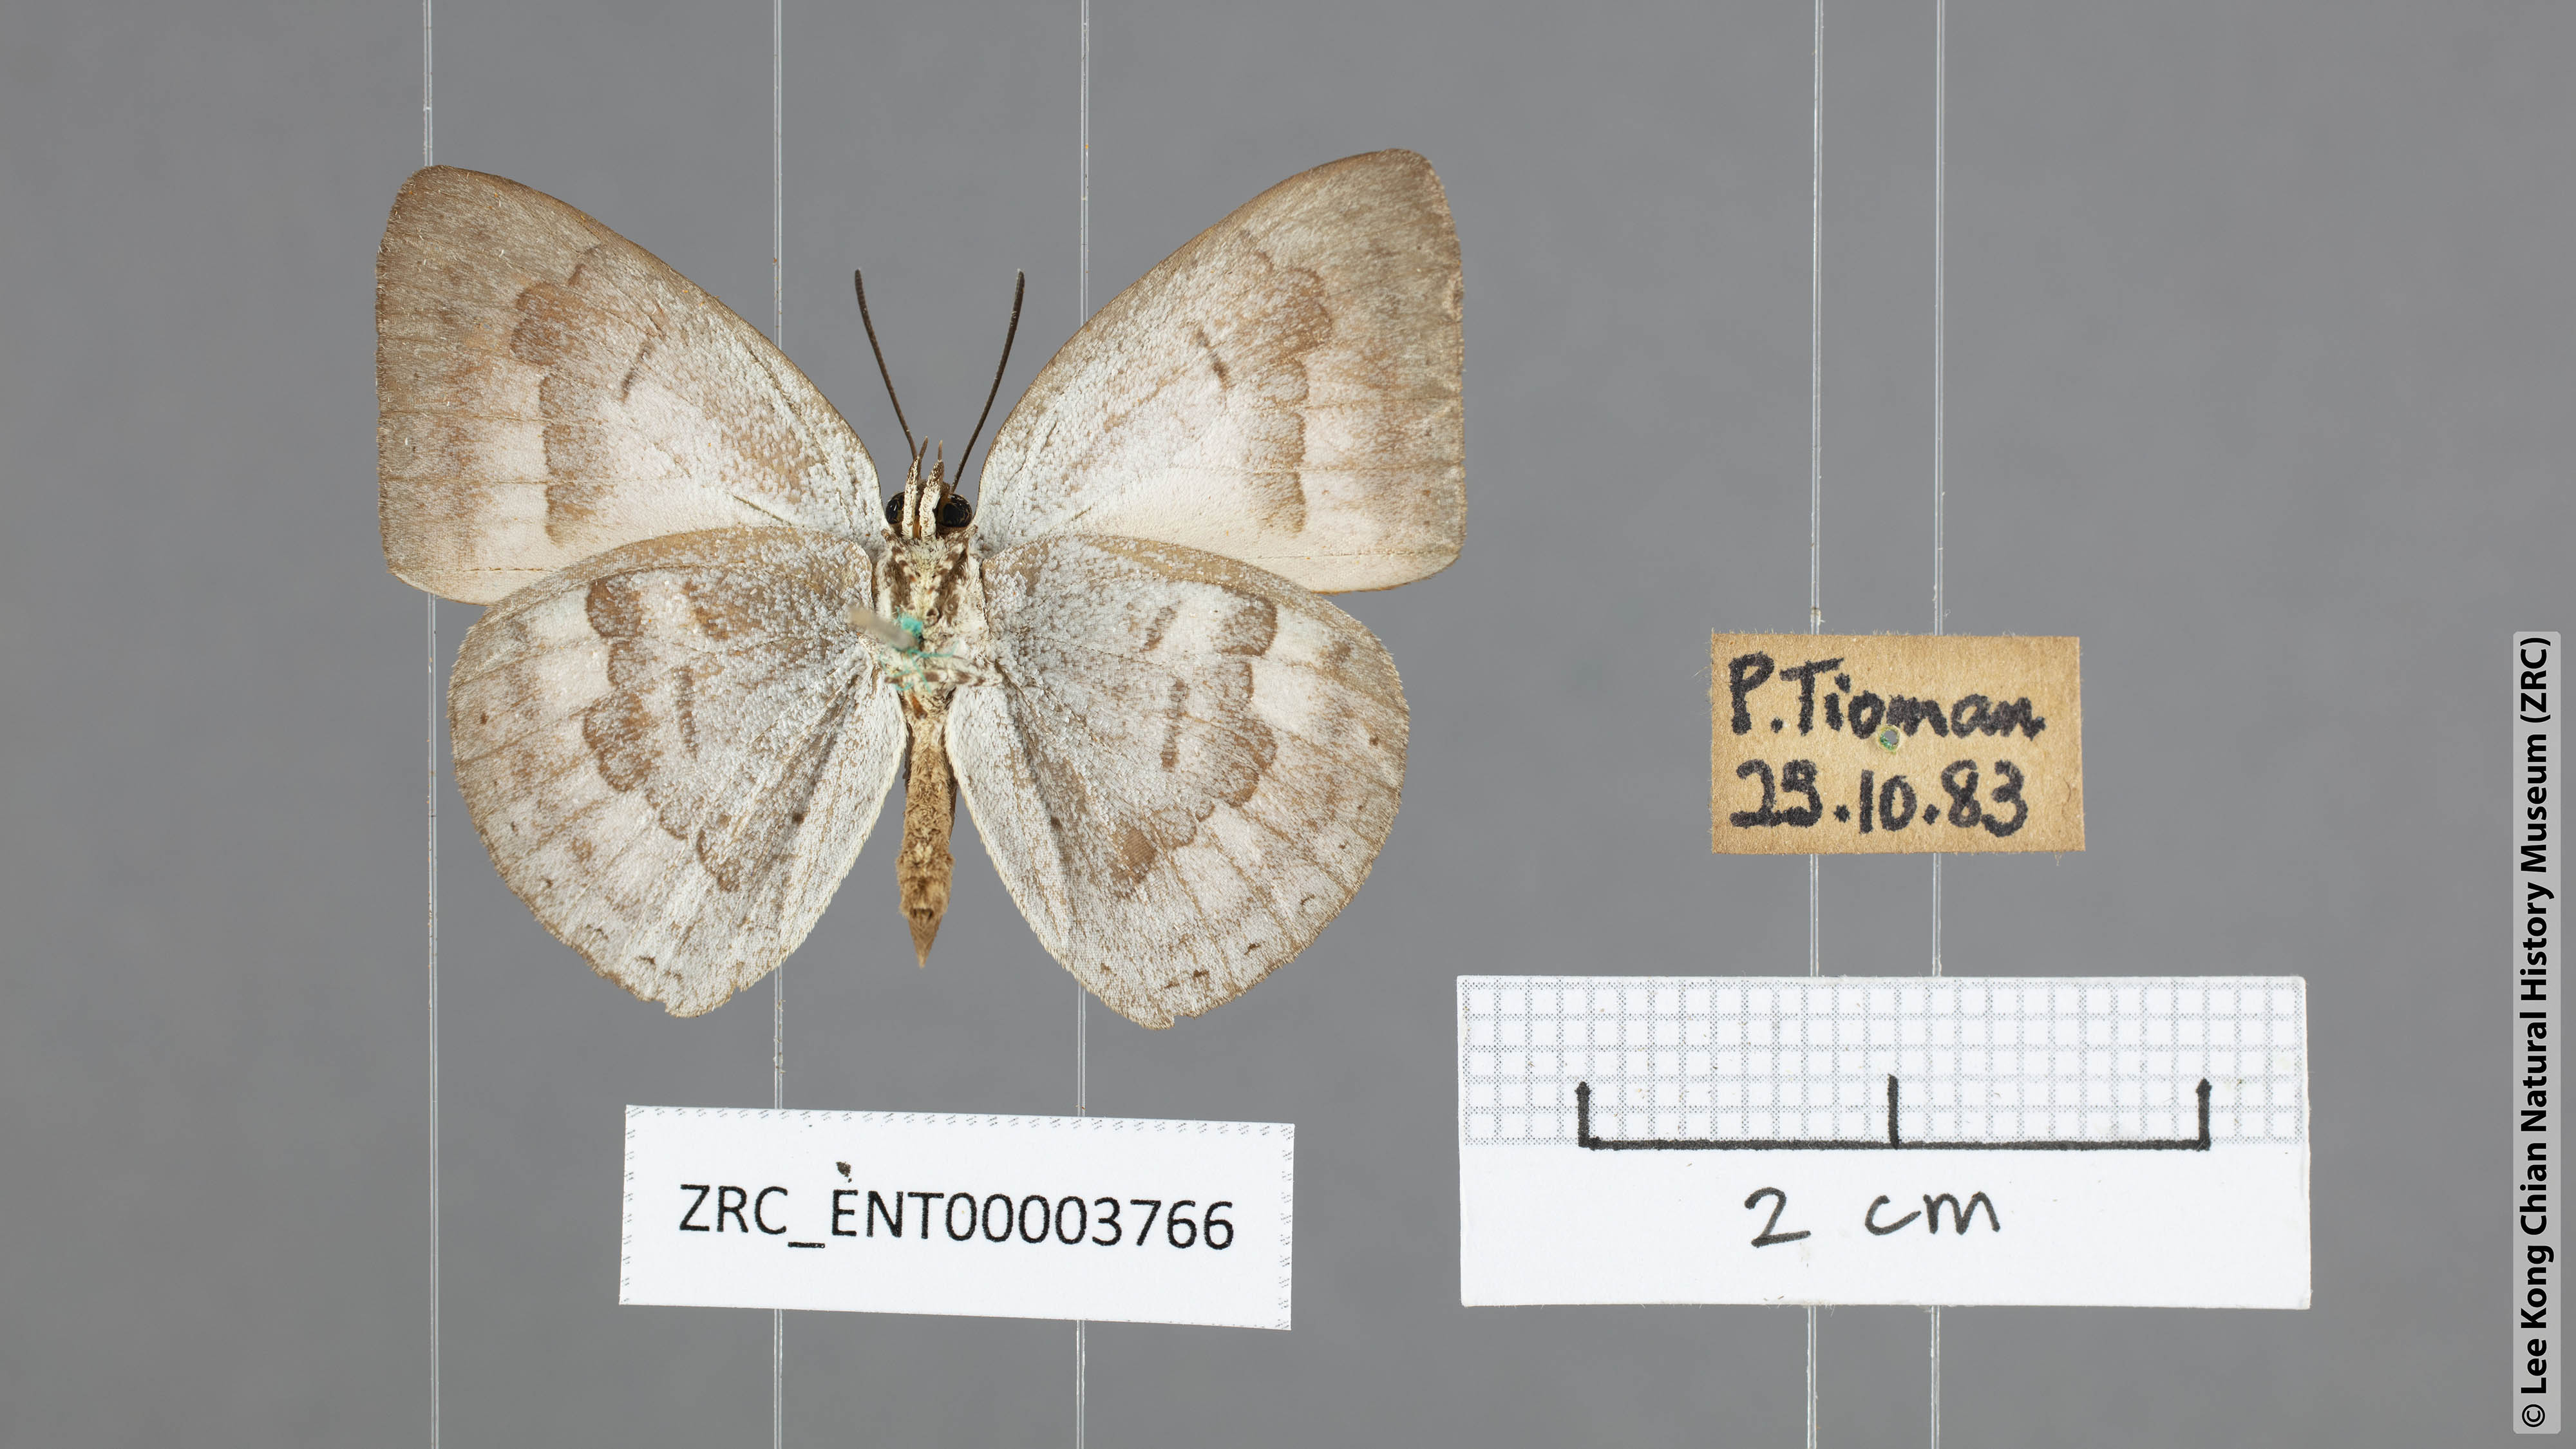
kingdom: Animalia
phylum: Arthropoda
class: Insecta
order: Lepidoptera
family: Lycaenidae
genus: Curetis
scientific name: Curetis tagalica
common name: Southern sunbeam
